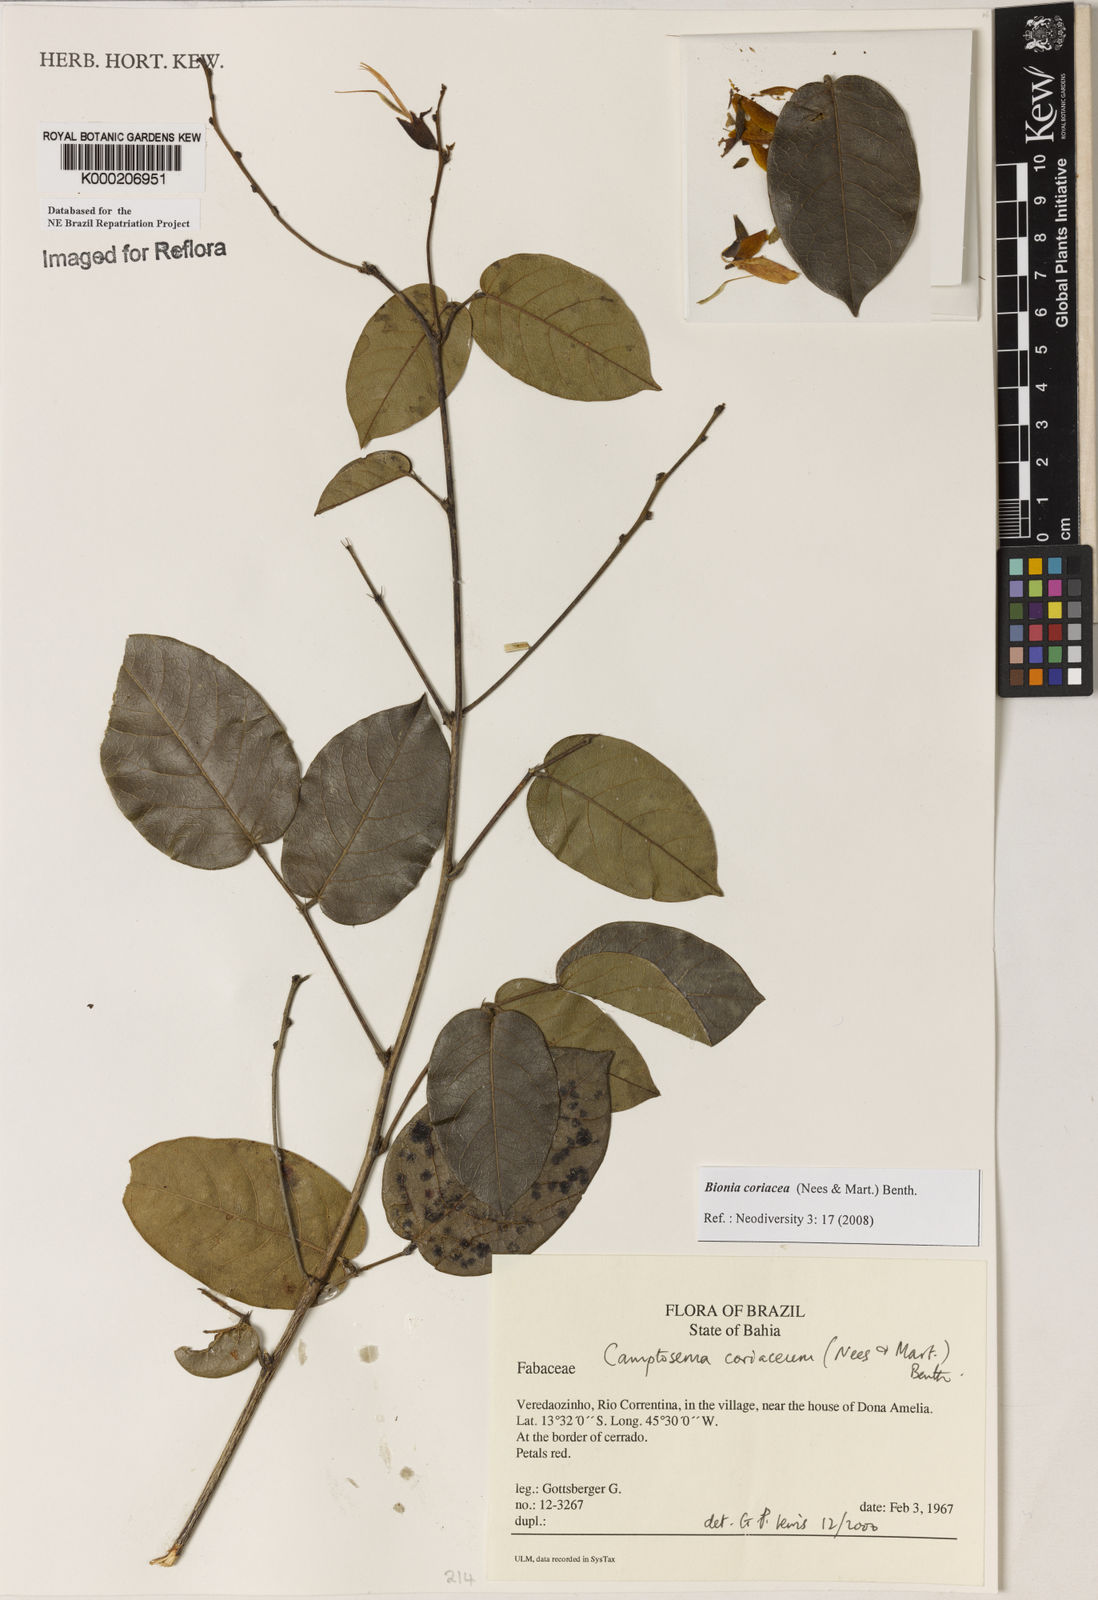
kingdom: Plantae
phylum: Tracheophyta
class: Magnoliopsida
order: Fabales
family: Fabaceae
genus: Camptosema
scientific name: Camptosema coriaceum
